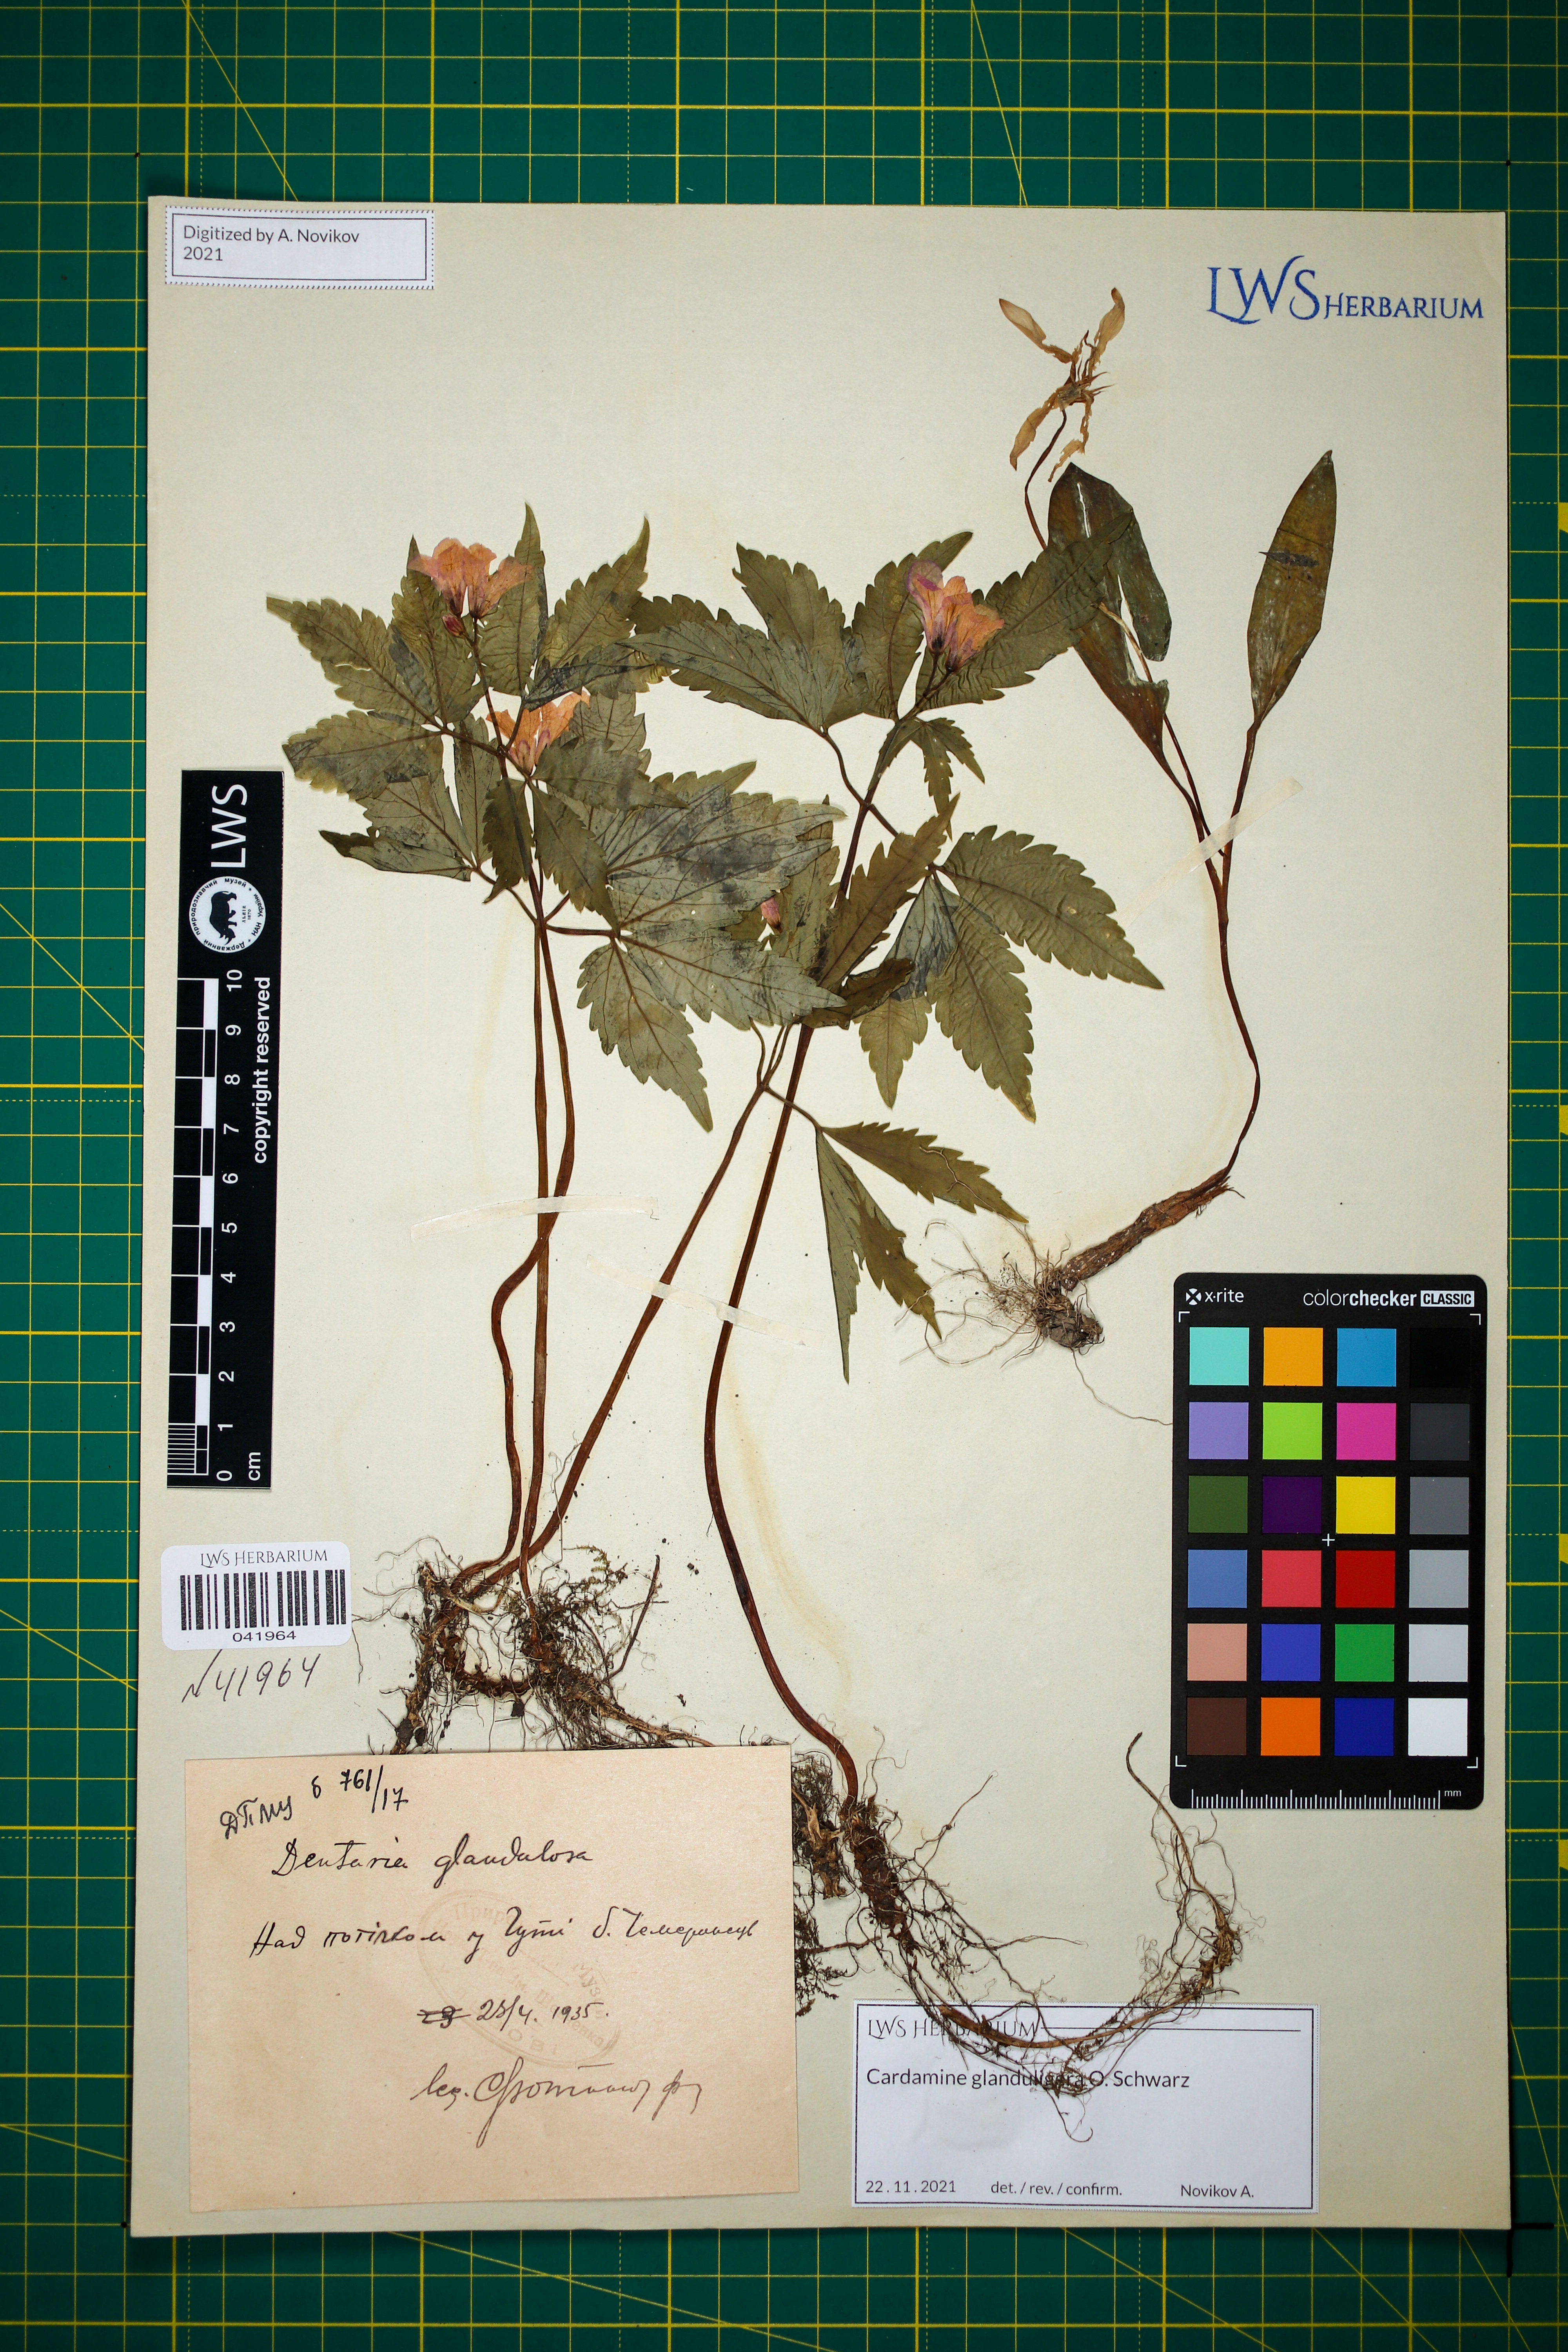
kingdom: Plantae
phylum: Tracheophyta
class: Magnoliopsida
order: Brassicales
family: Brassicaceae
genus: Cardamine
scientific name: Cardamine glanduligera
